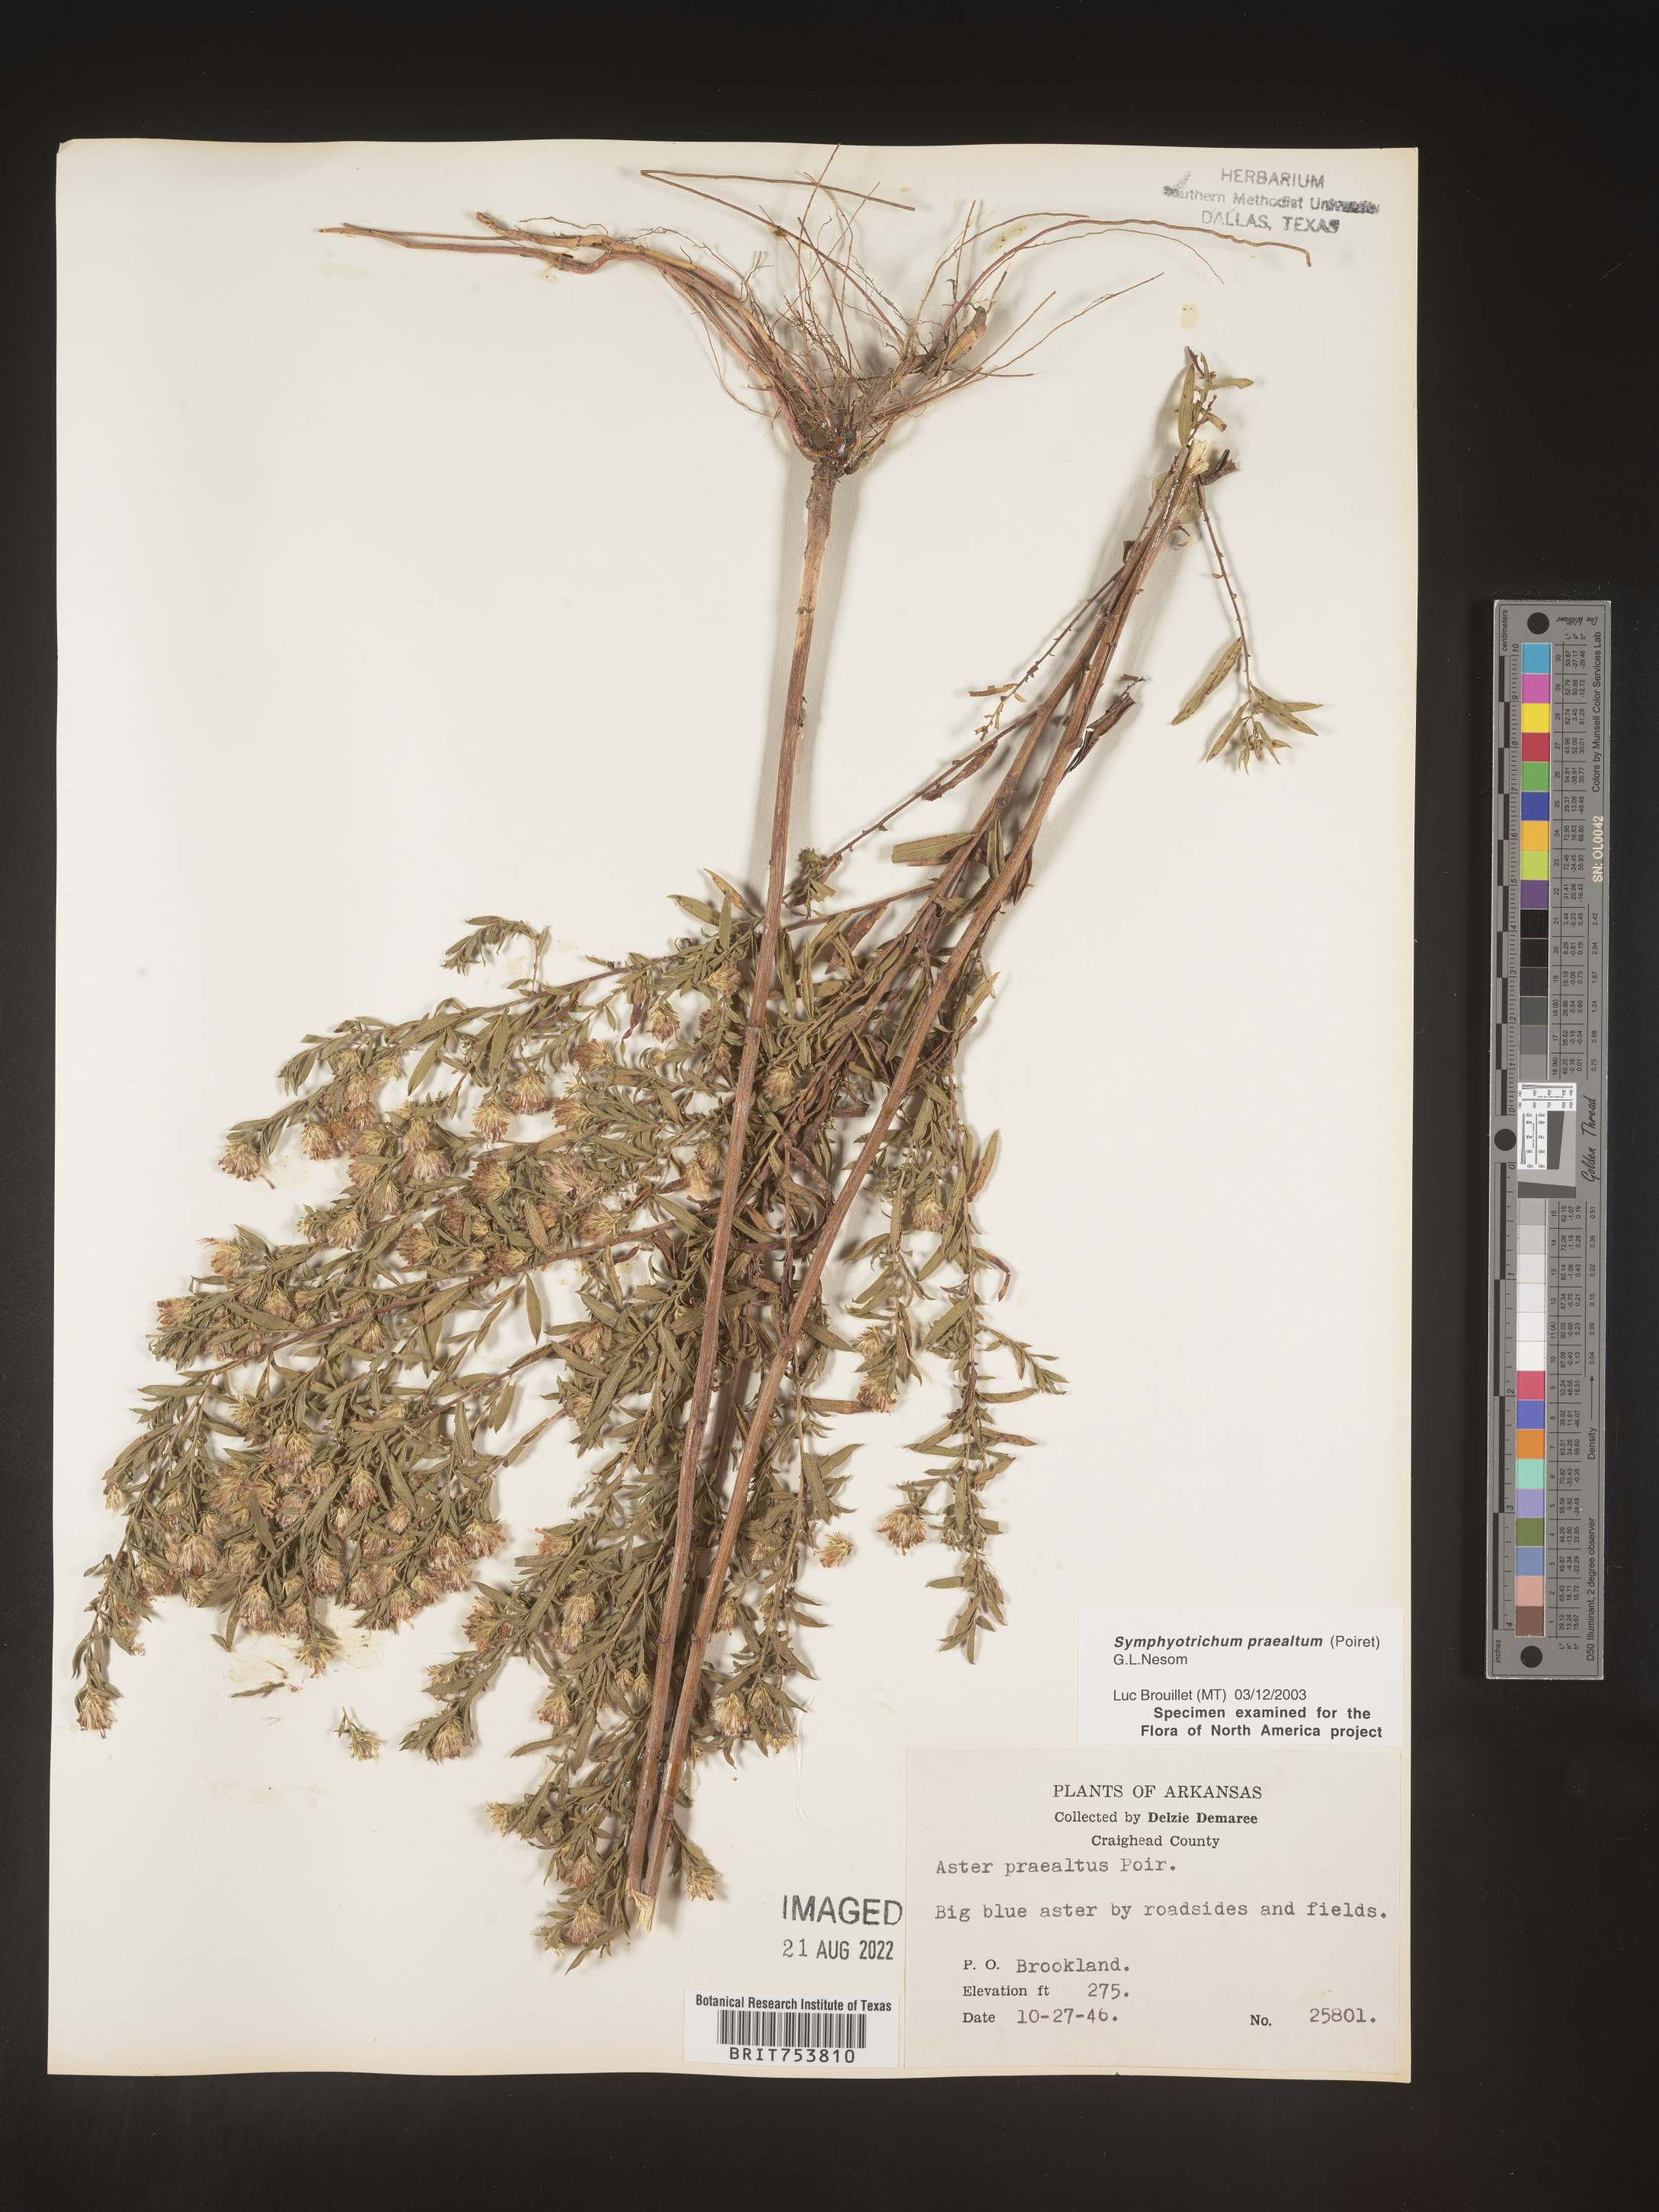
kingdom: Plantae
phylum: Tracheophyta
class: Magnoliopsida
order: Asterales
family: Asteraceae
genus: Symphyotrichum
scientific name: Symphyotrichum praealtum
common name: Willow aster
